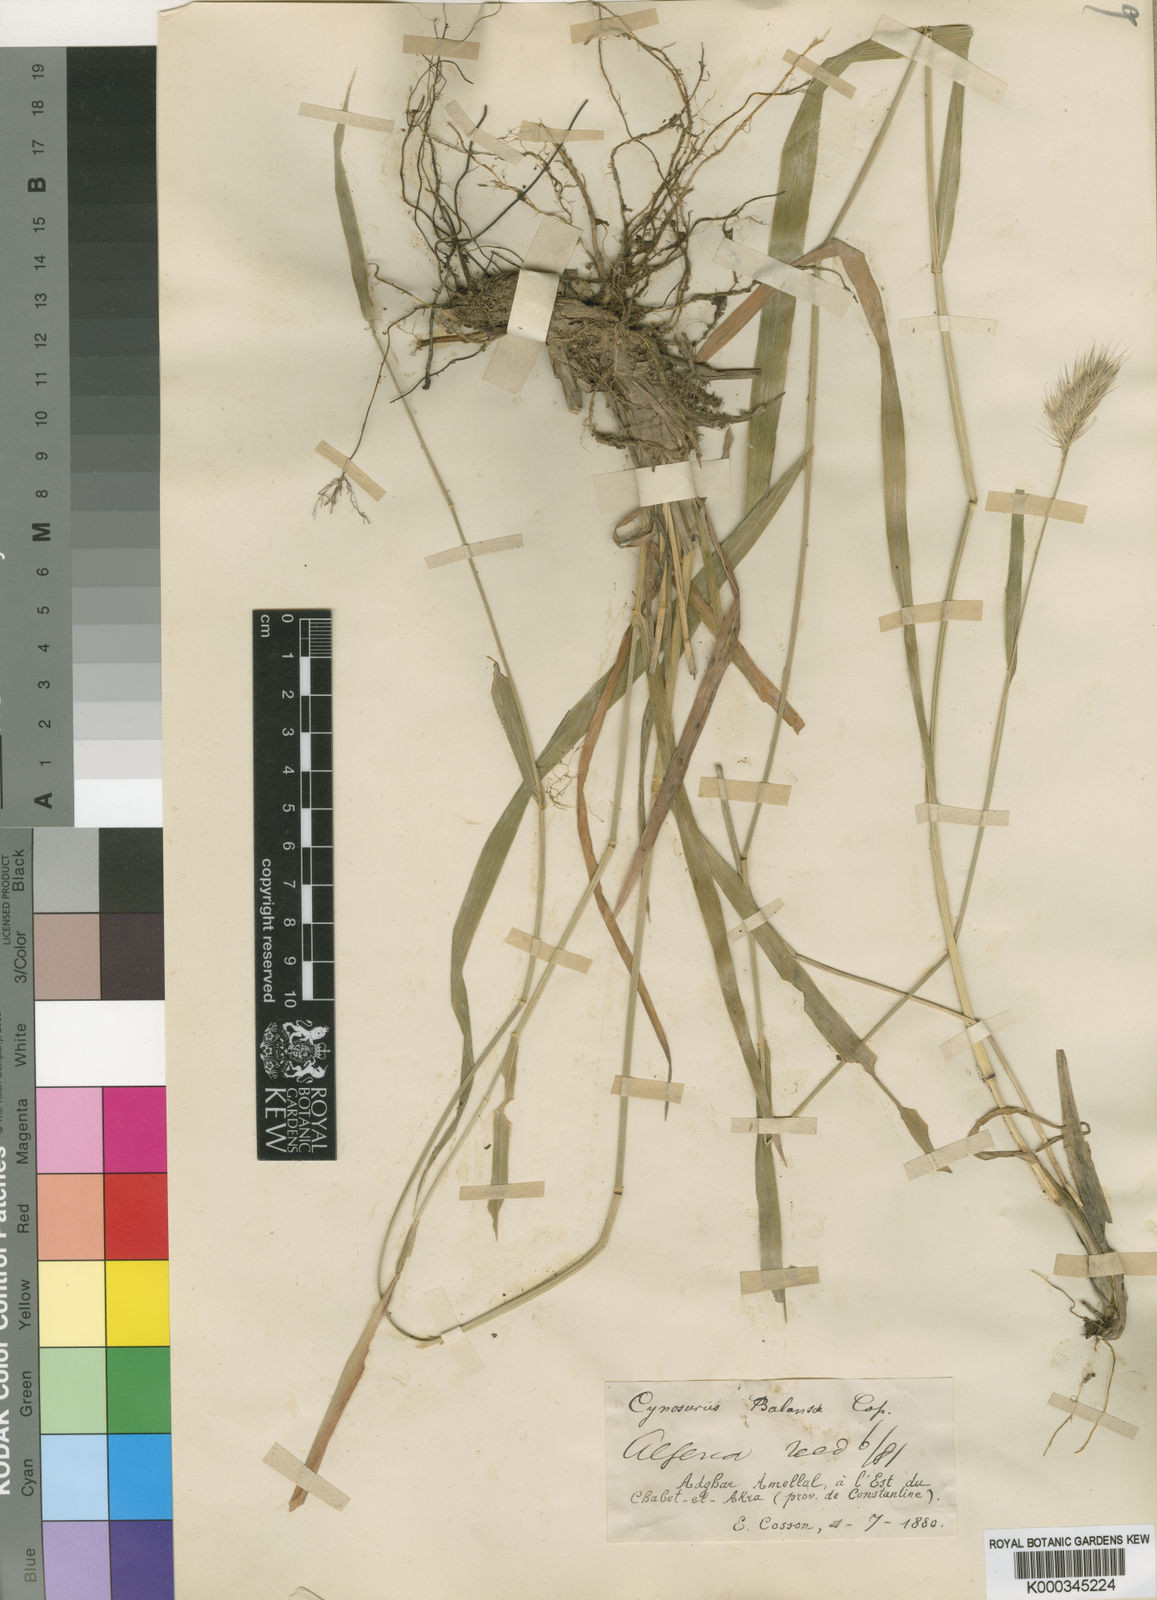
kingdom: Plantae
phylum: Tracheophyta
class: Liliopsida
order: Poales
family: Poaceae
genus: Cynosurus
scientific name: Cynosurus balansae
